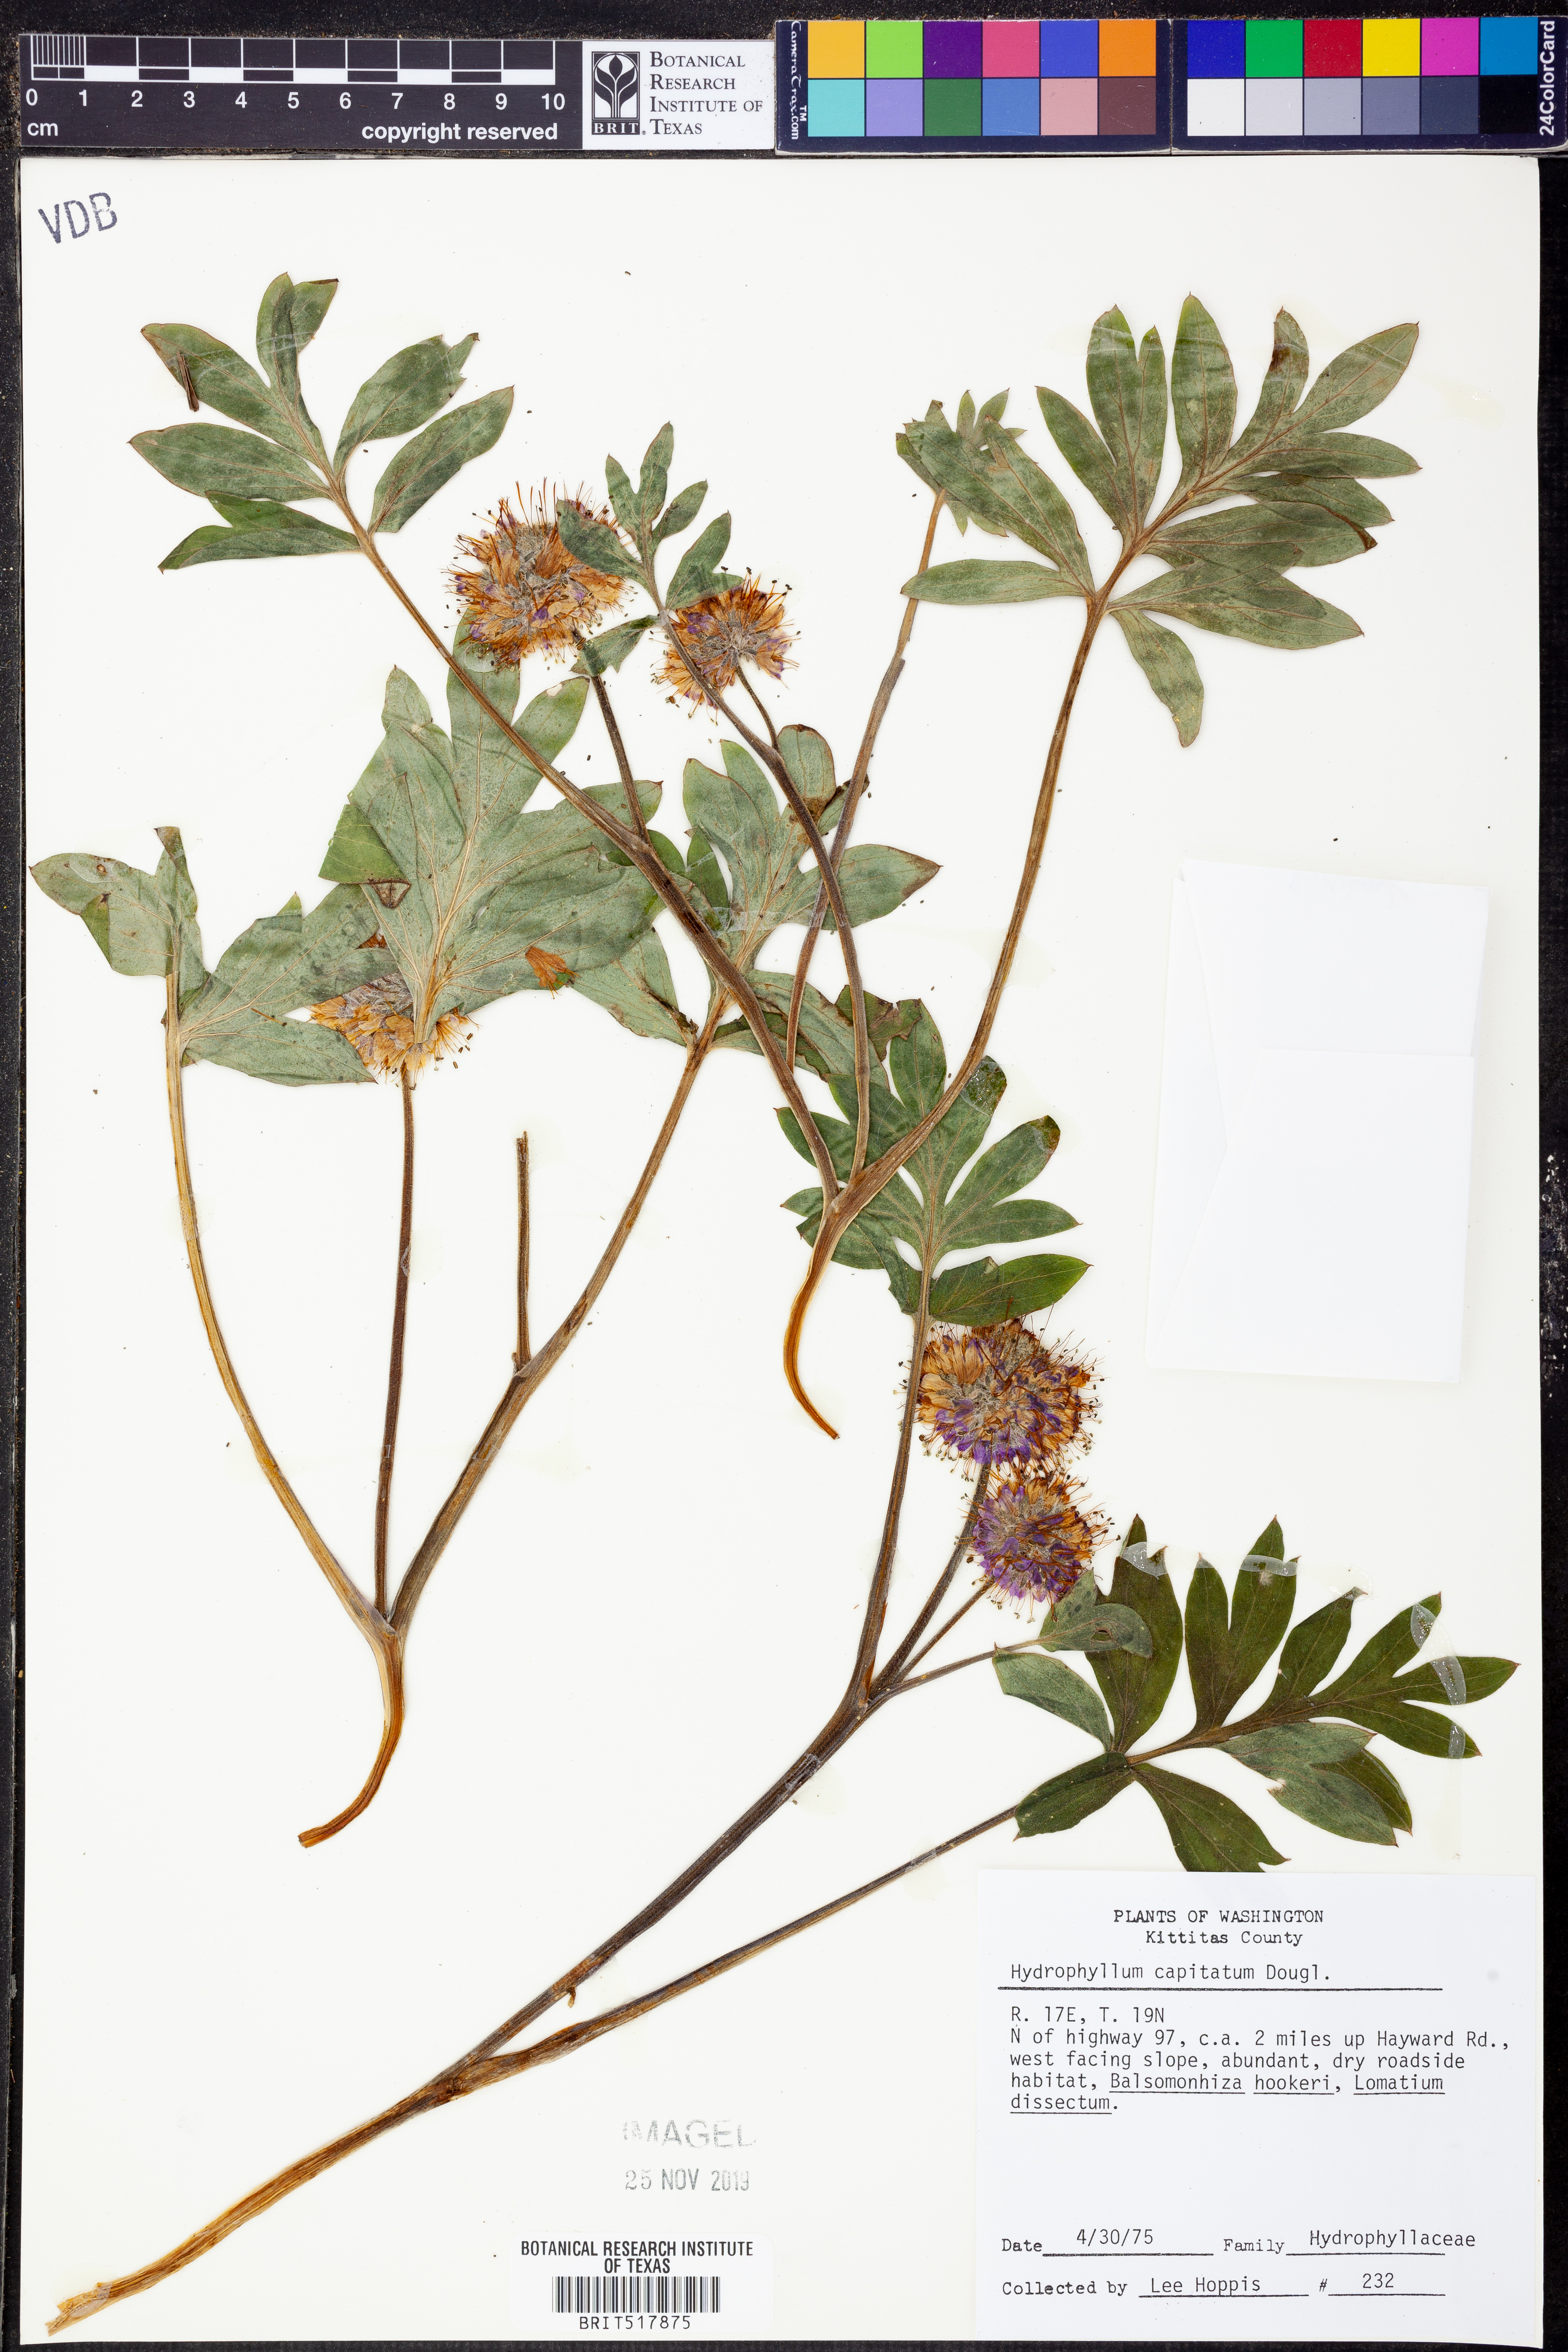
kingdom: Plantae
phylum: Tracheophyta
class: Magnoliopsida
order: Boraginales
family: Hydrophyllaceae
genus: Hydrophyllum
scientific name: Hydrophyllum capitatum
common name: Woollen-breeches
